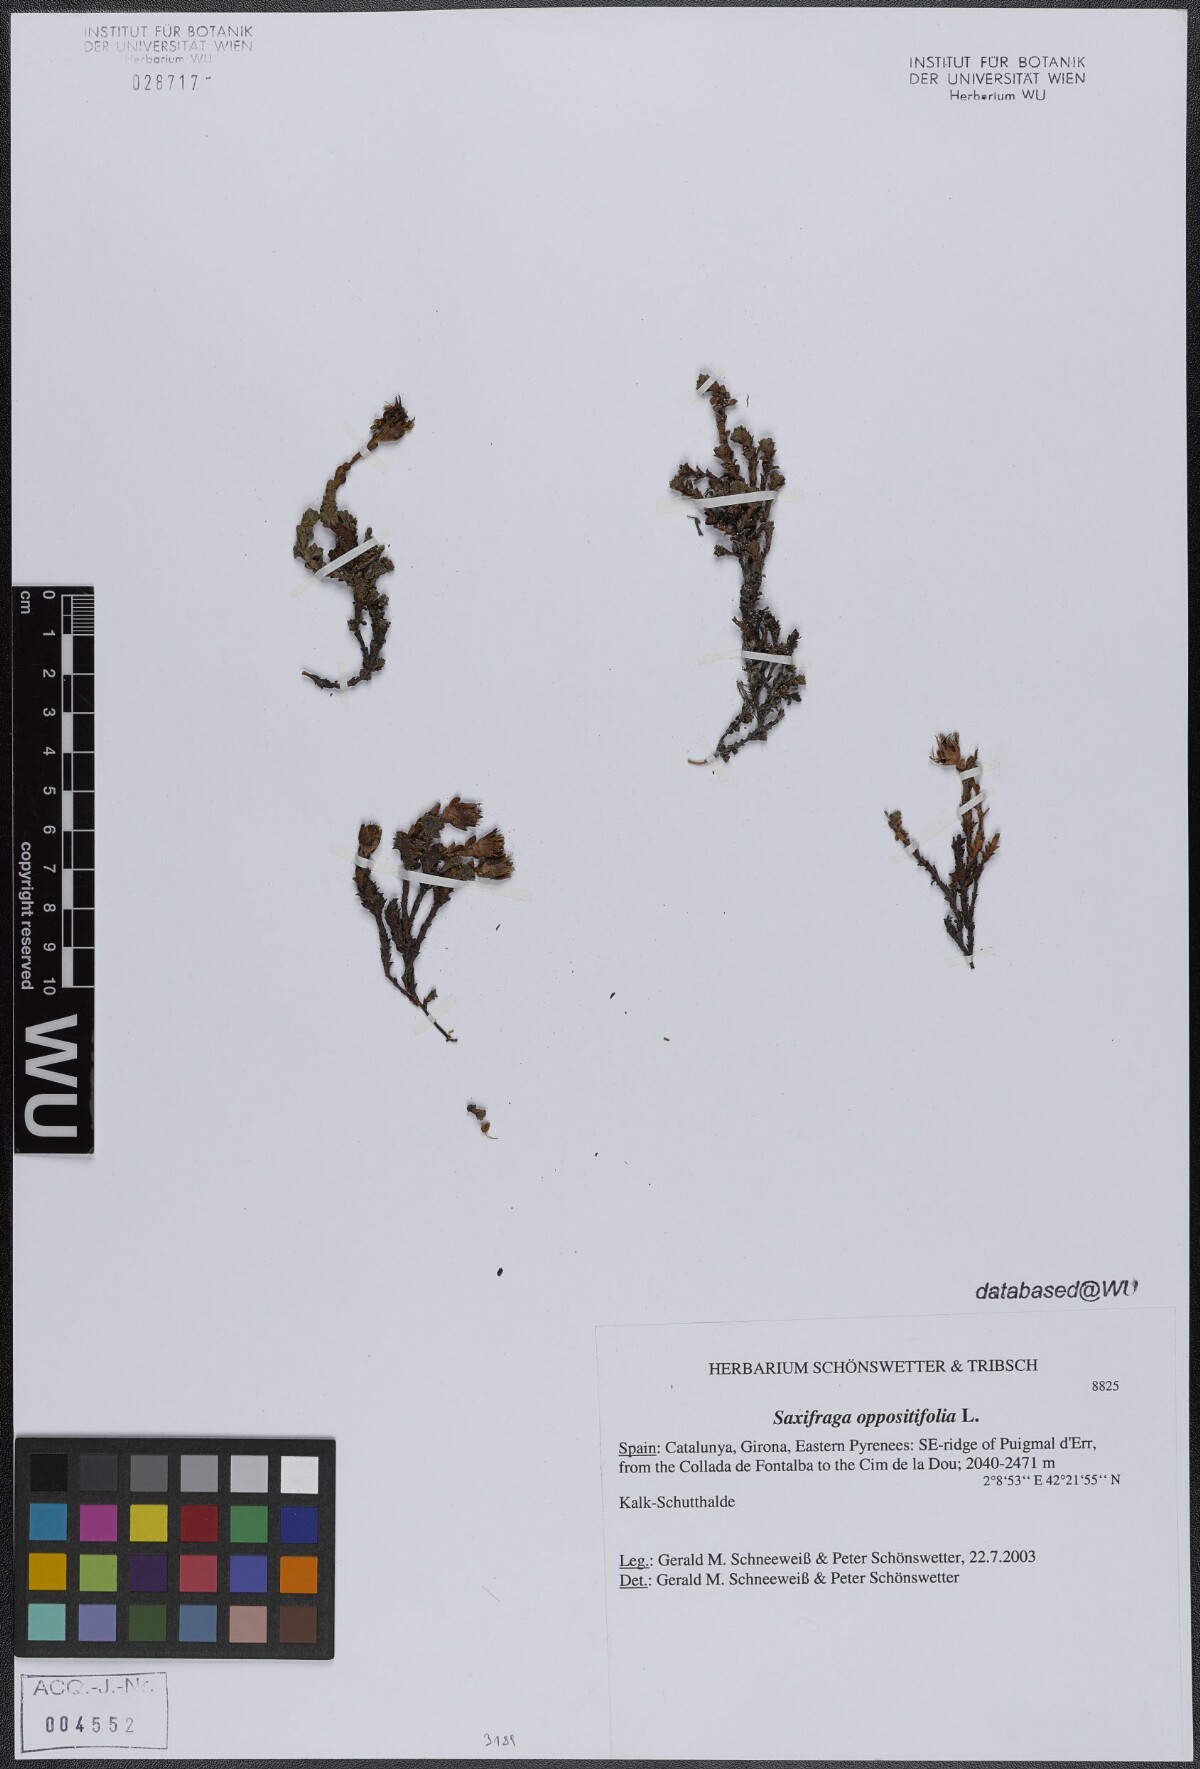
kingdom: Plantae
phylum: Tracheophyta
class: Magnoliopsida
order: Saxifragales
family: Saxifragaceae
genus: Saxifraga
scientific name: Saxifraga oppositifolia
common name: Purple saxifrage
